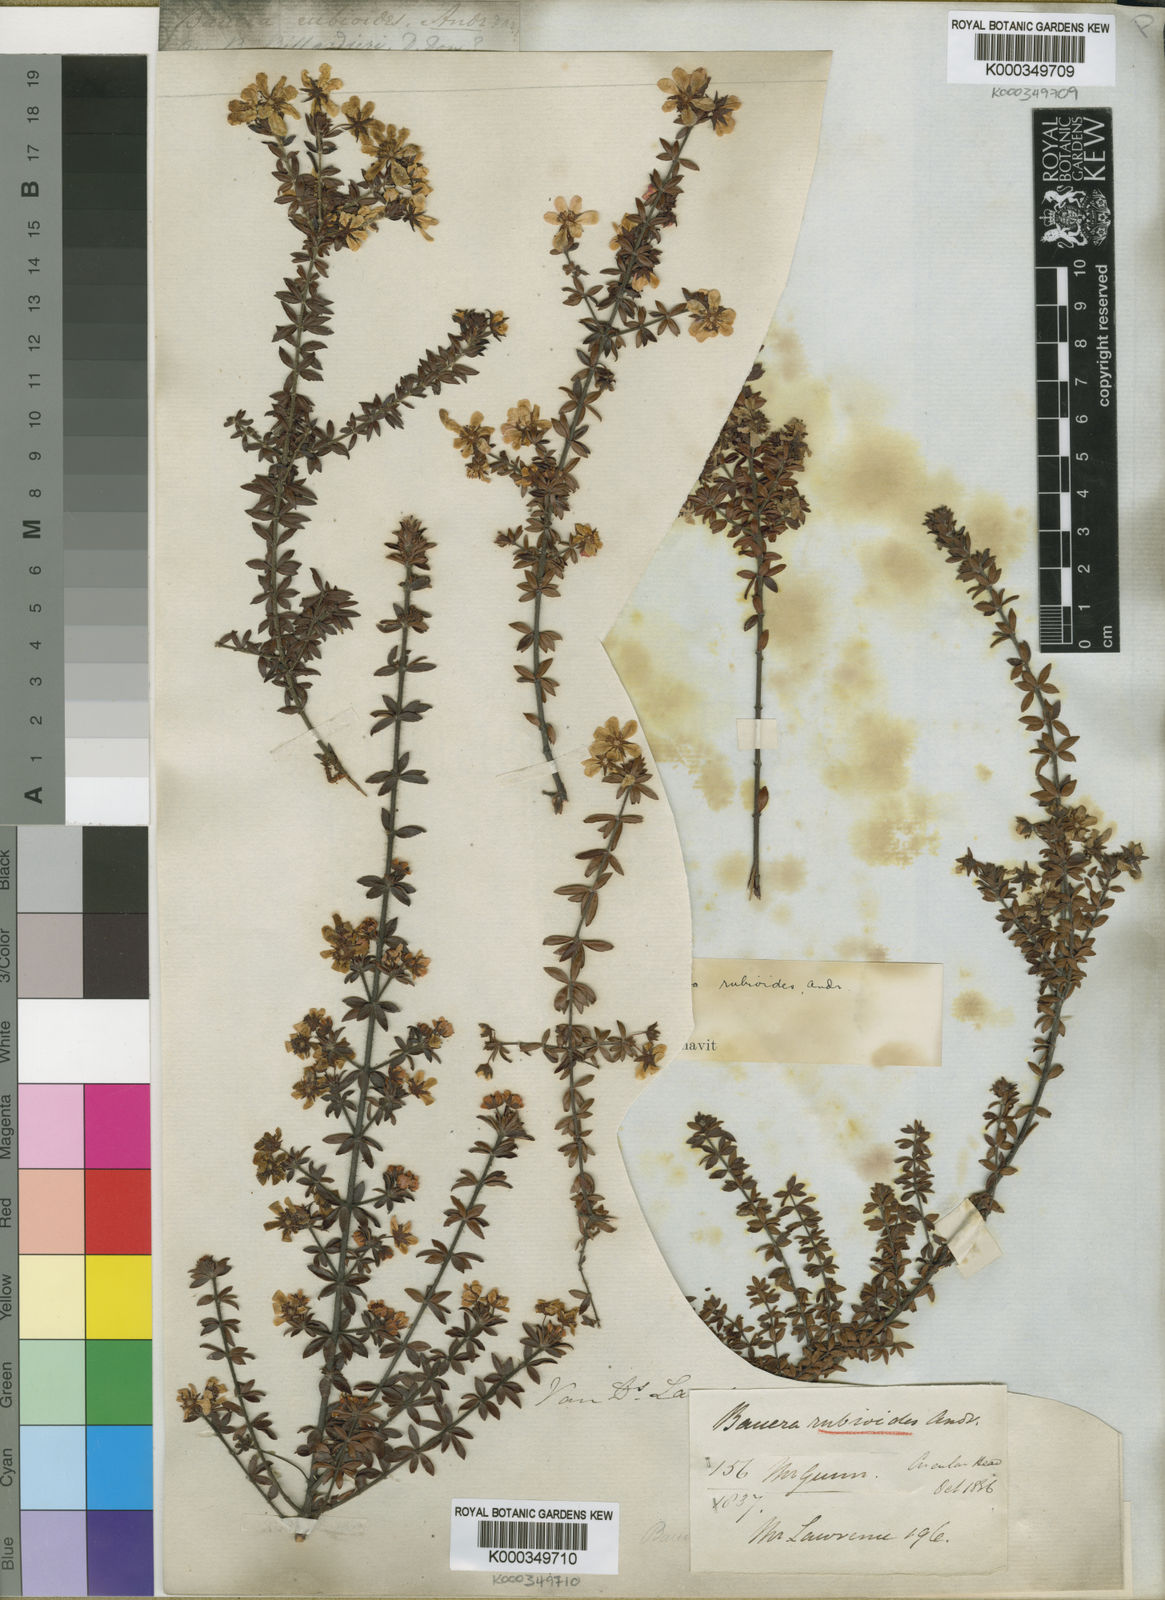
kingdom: Plantae
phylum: Tracheophyta
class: Magnoliopsida
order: Oxalidales
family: Cunoniaceae
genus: Bauera
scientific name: Bauera rubioides
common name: River-rose
